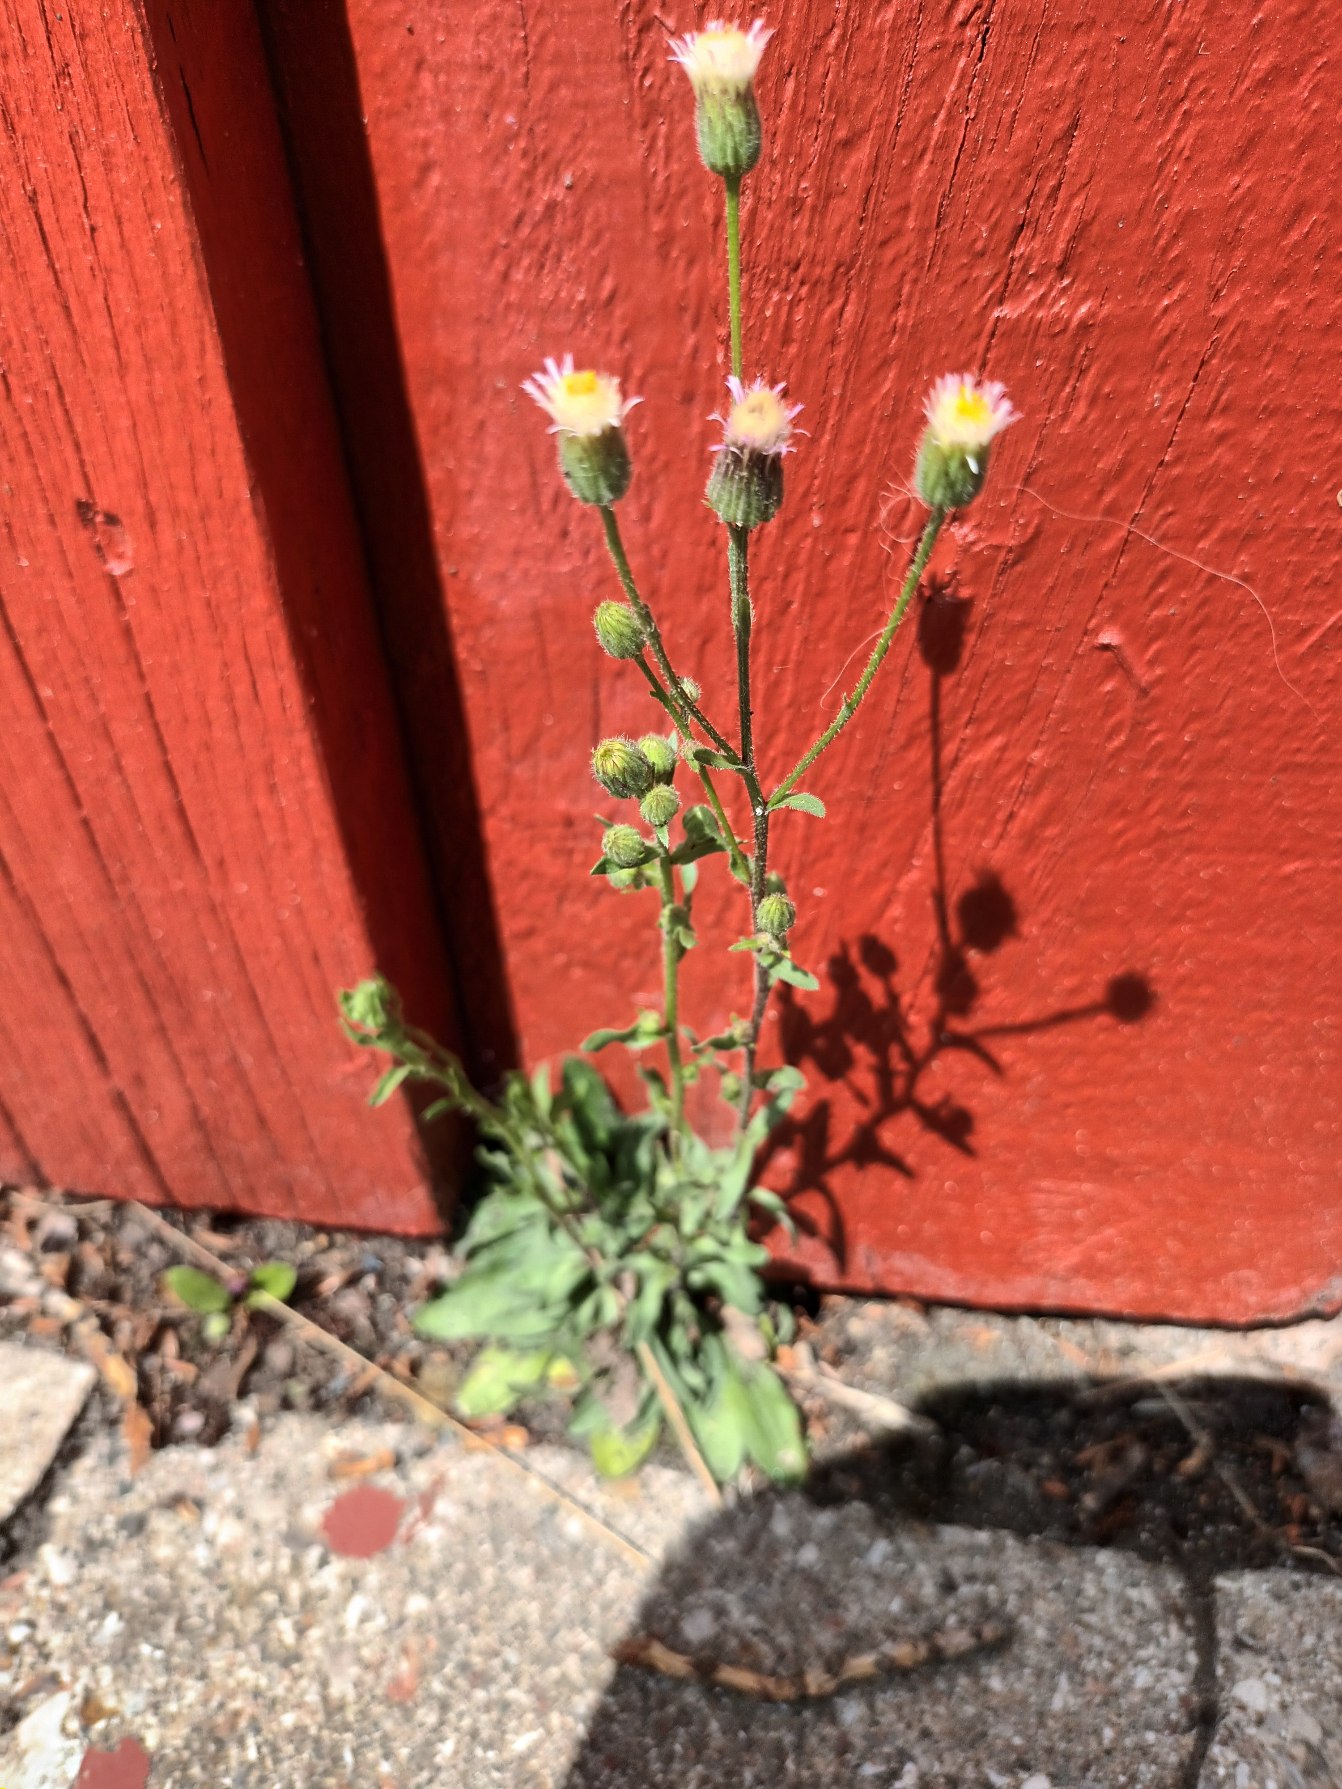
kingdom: Plantae
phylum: Tracheophyta
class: Magnoliopsida
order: Asterales
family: Asteraceae
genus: Erigeron
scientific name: Erigeron muralis
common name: Vreden bakkestjerne
